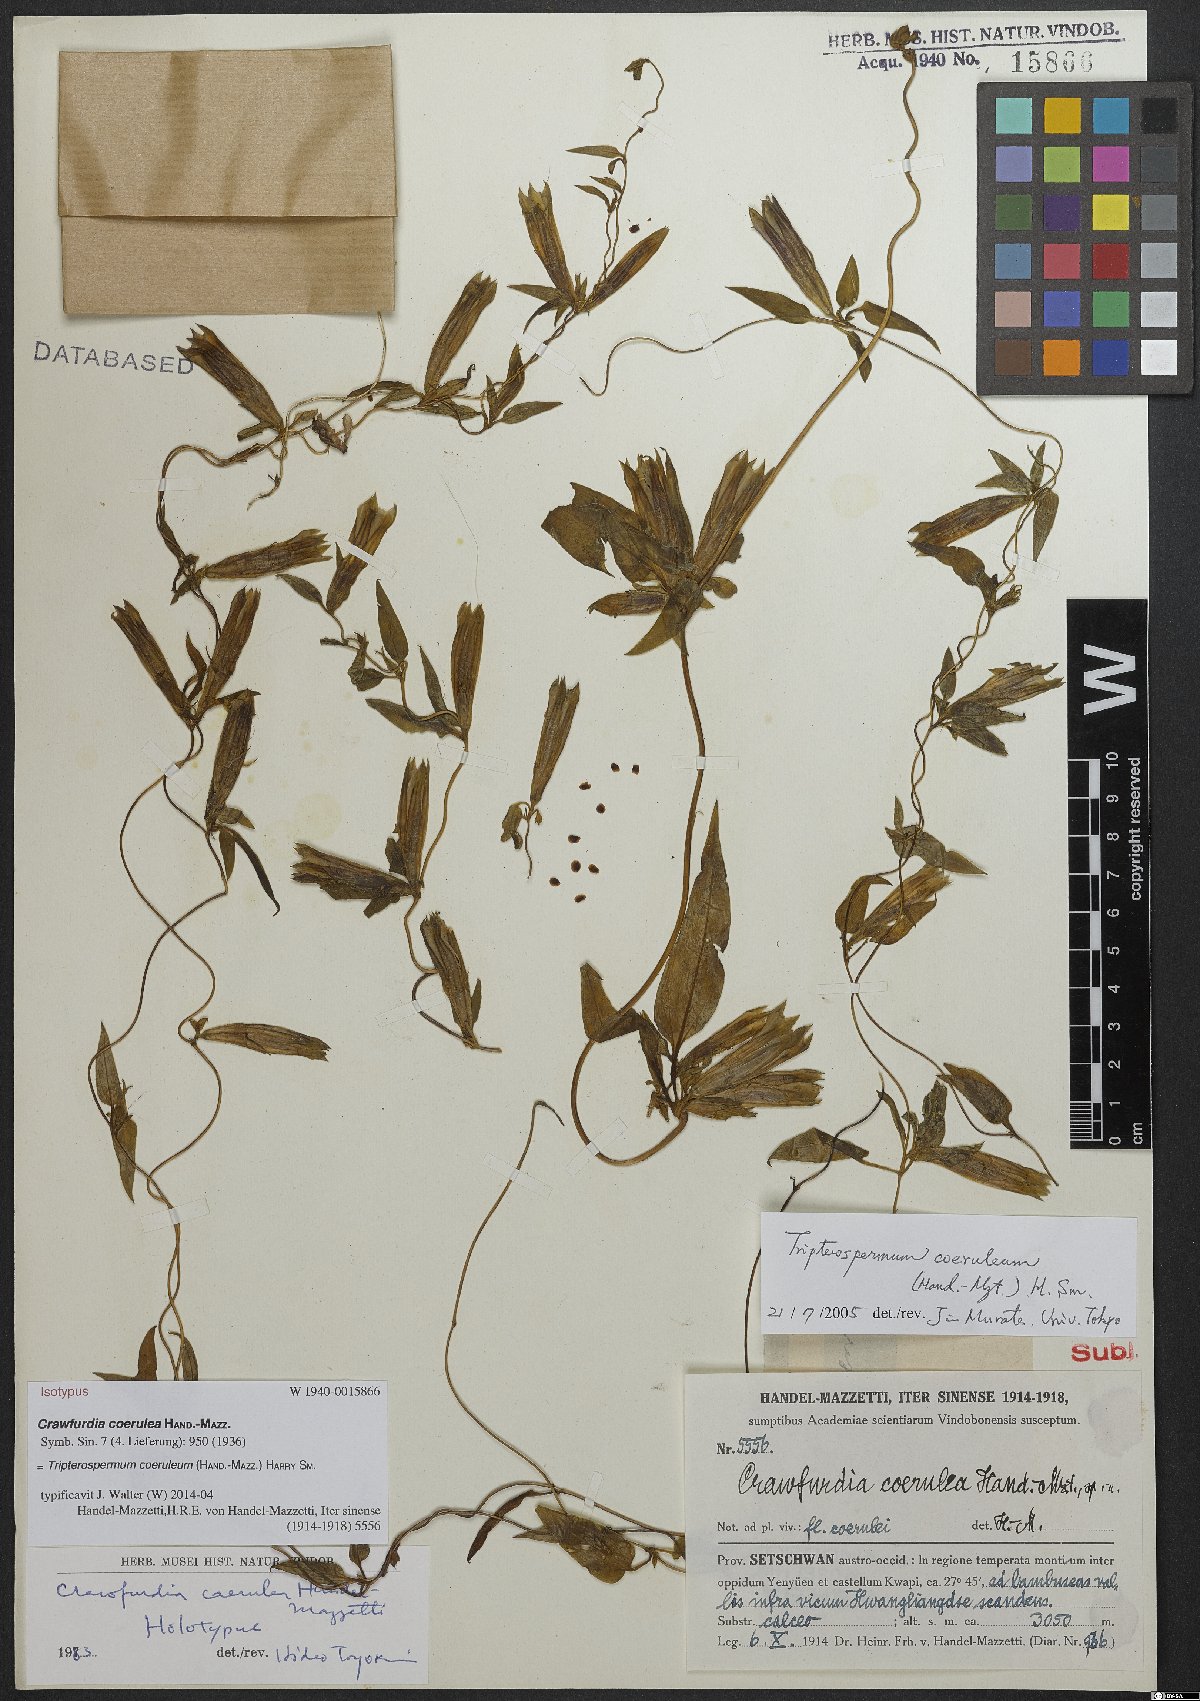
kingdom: Plantae
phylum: Tracheophyta
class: Magnoliopsida
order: Gentianales
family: Gentianaceae
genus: Tripterospermum
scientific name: Tripterospermum coeruleum
